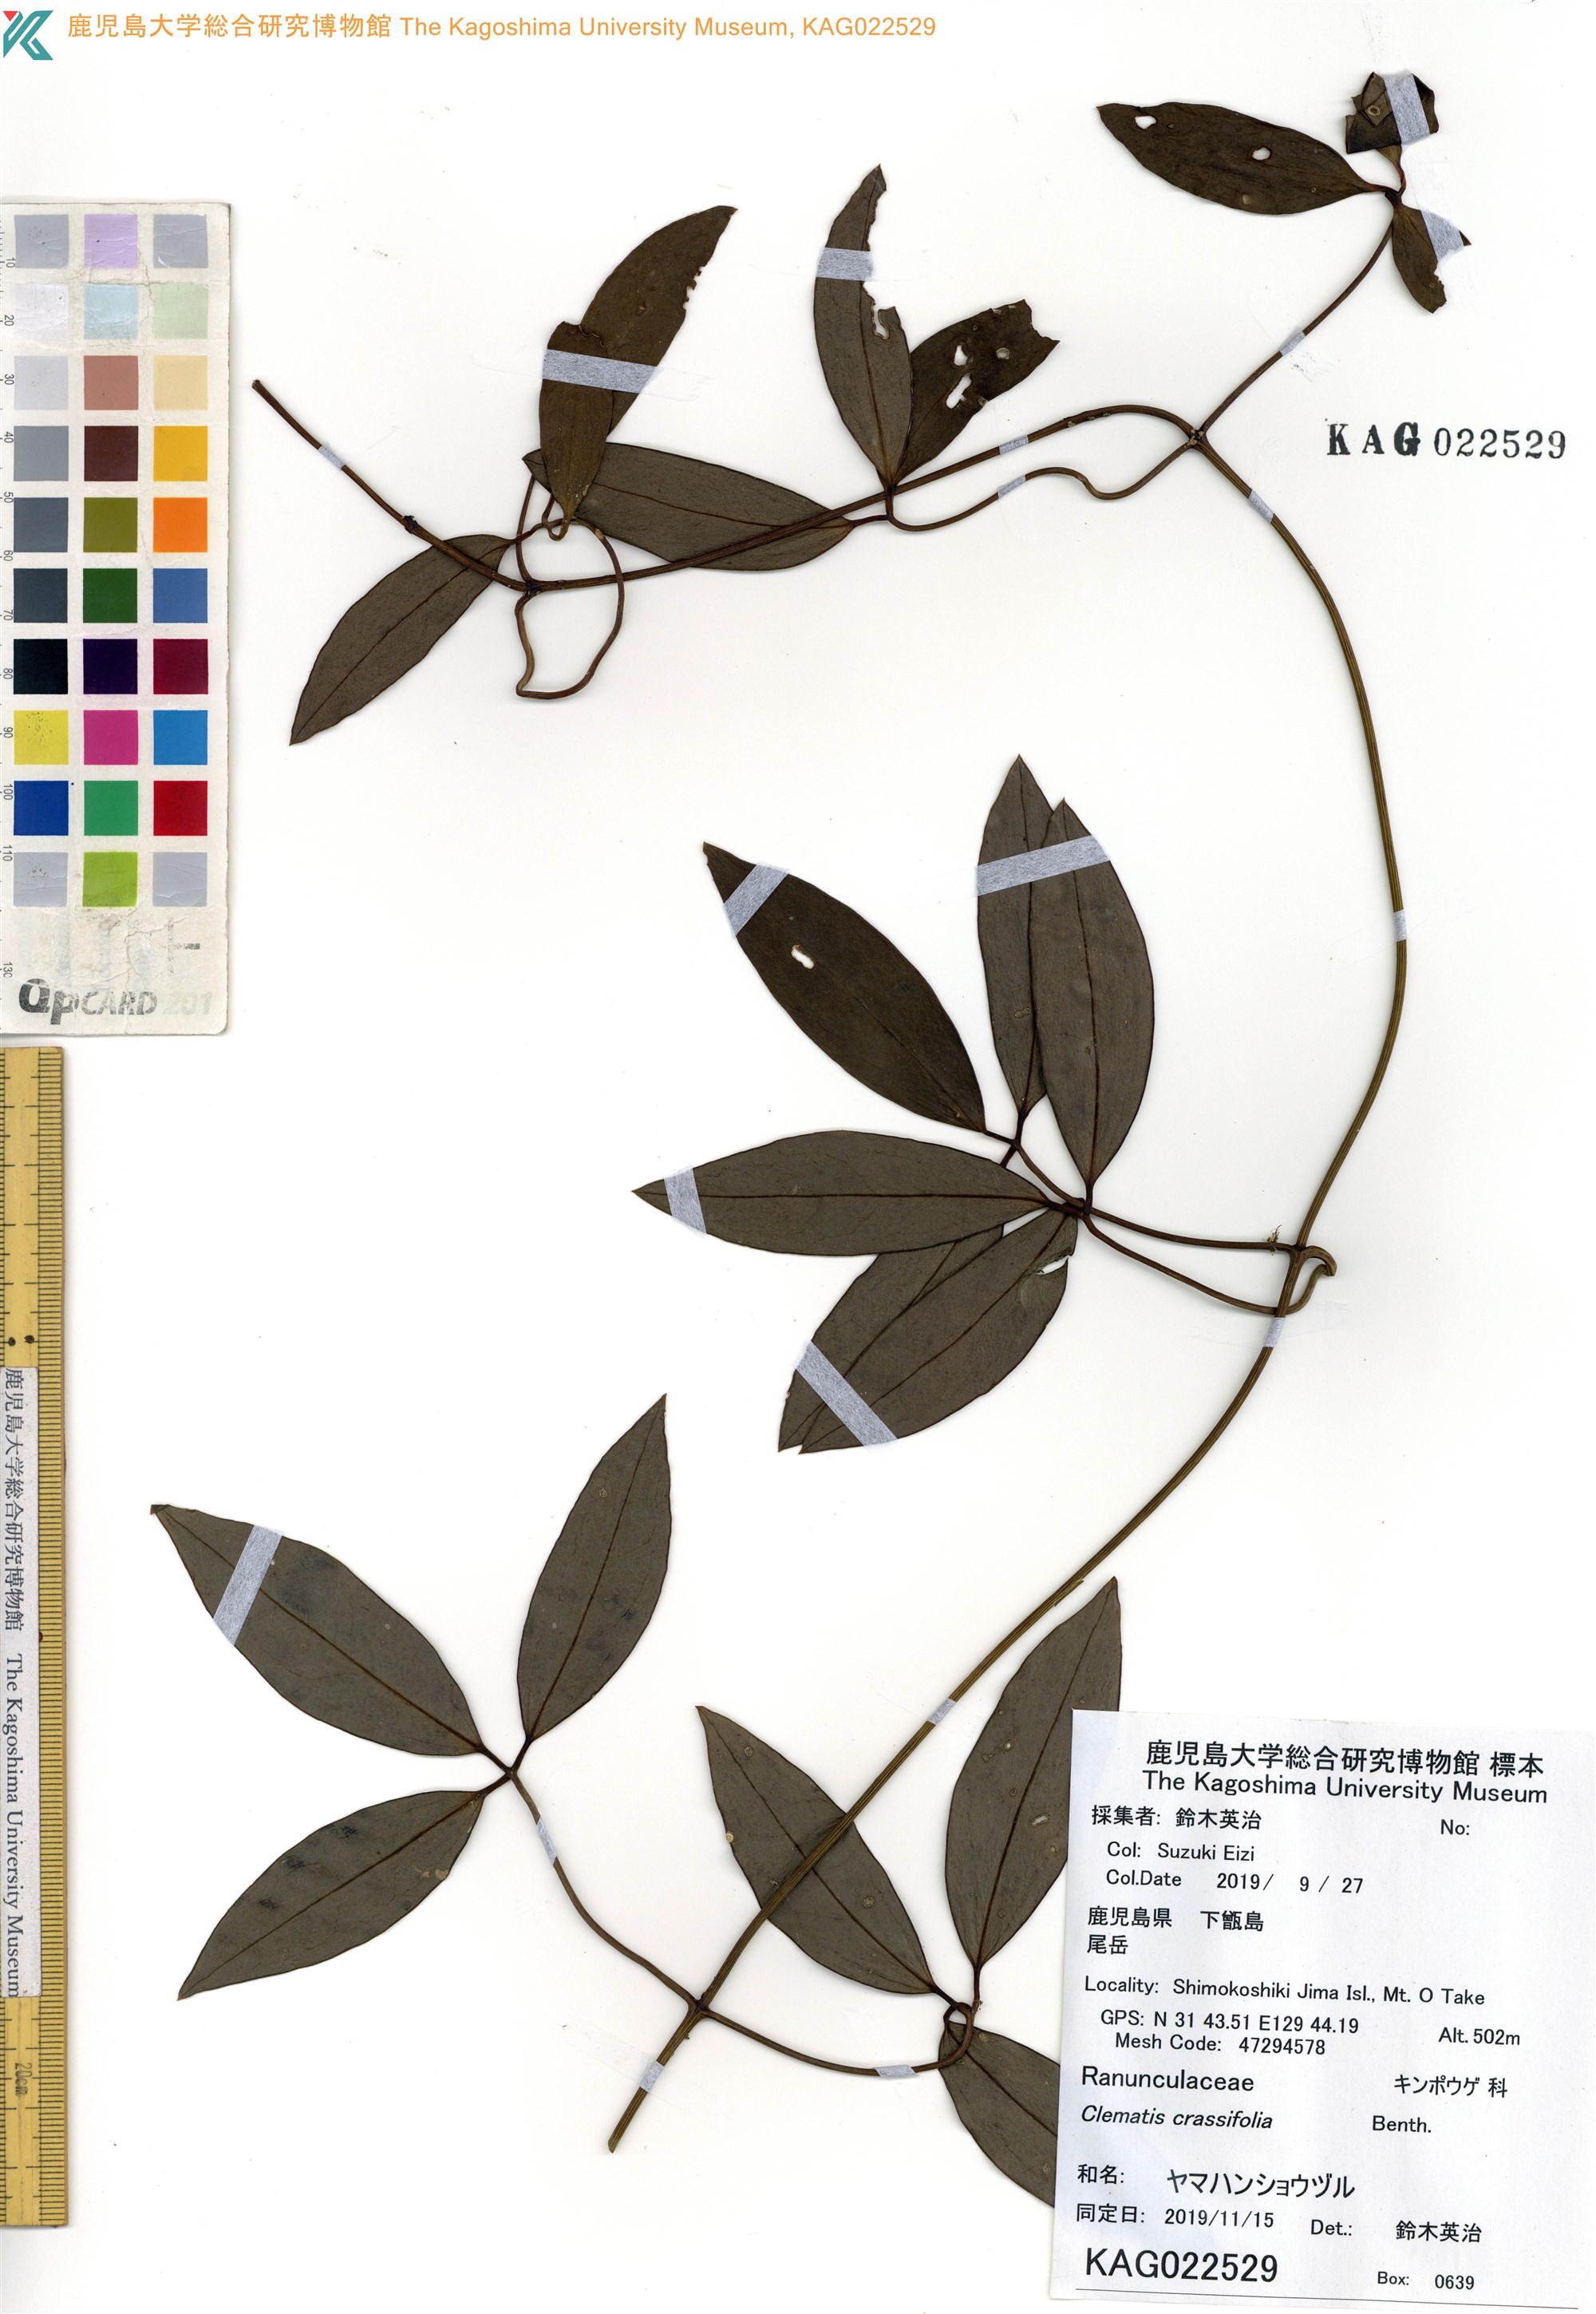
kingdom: Plantae
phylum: Tracheophyta
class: Magnoliopsida
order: Ranunculales
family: Ranunculaceae
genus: Clematis
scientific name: Clematis crassifolia
